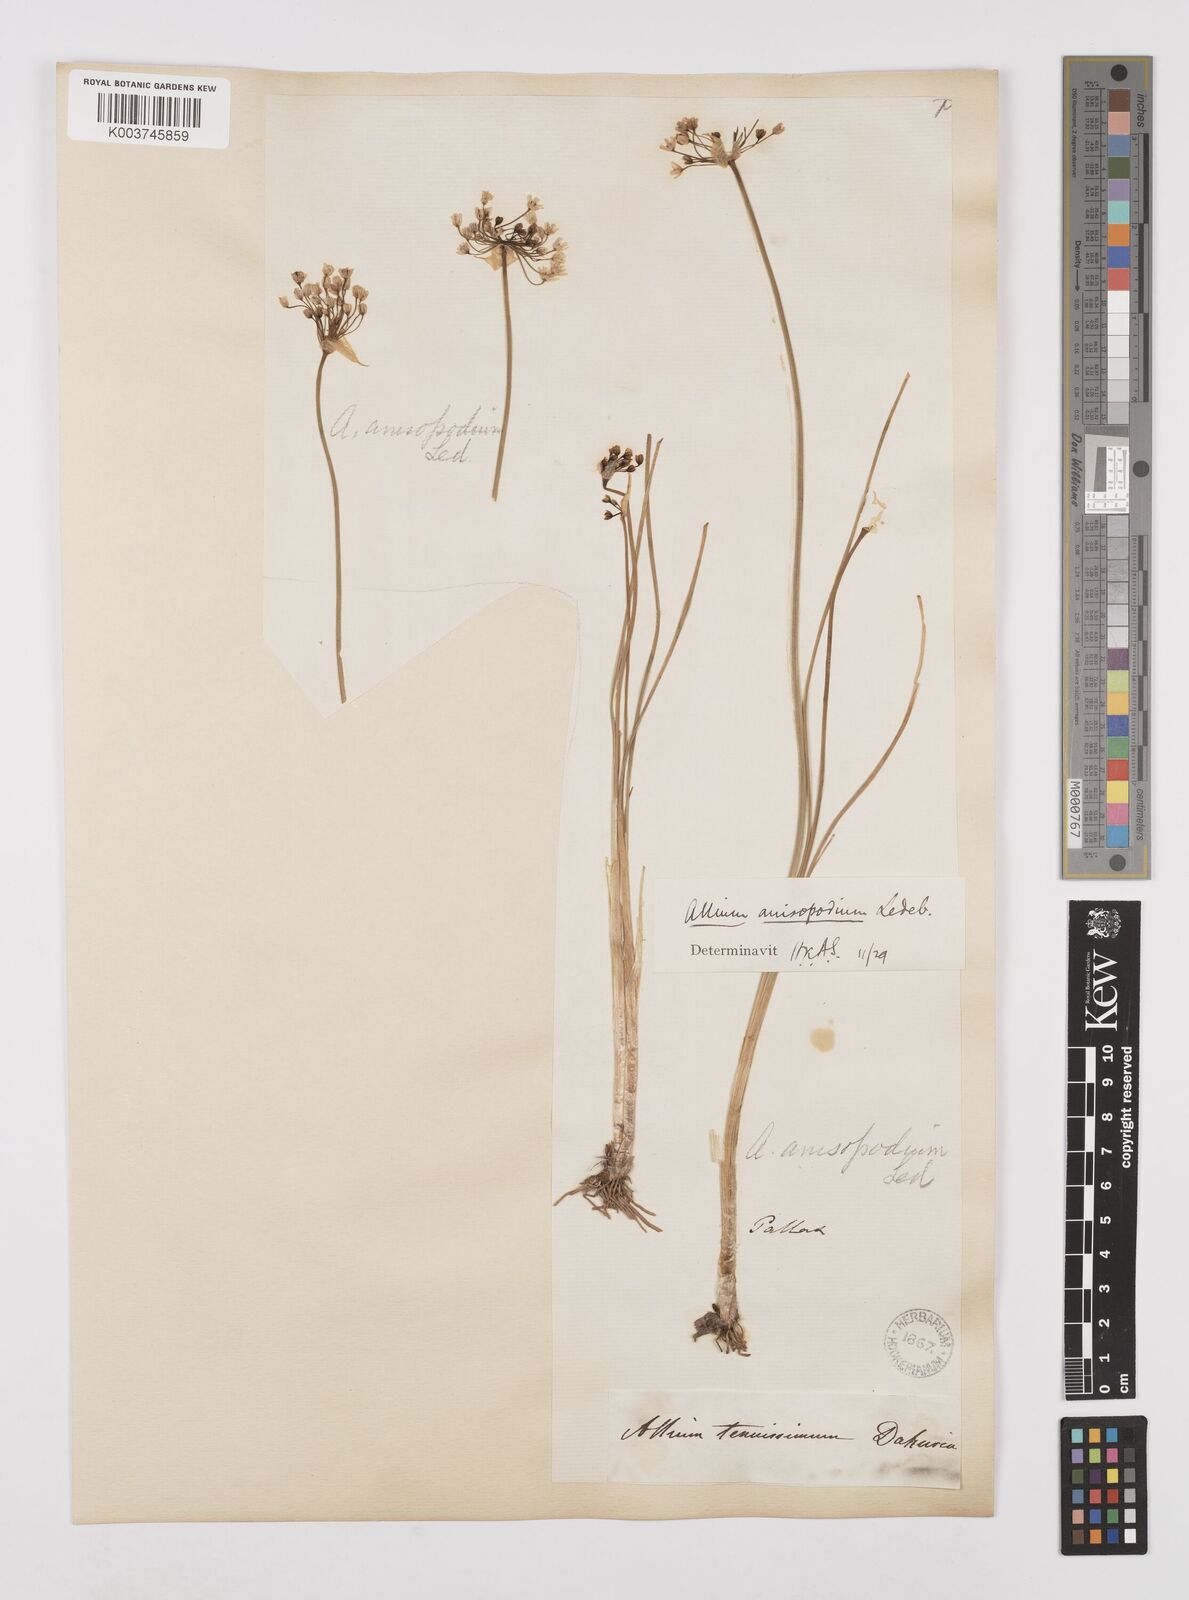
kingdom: Plantae
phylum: Tracheophyta
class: Liliopsida
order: Asparagales
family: Amaryllidaceae
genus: Allium
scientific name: Allium anisopodium
